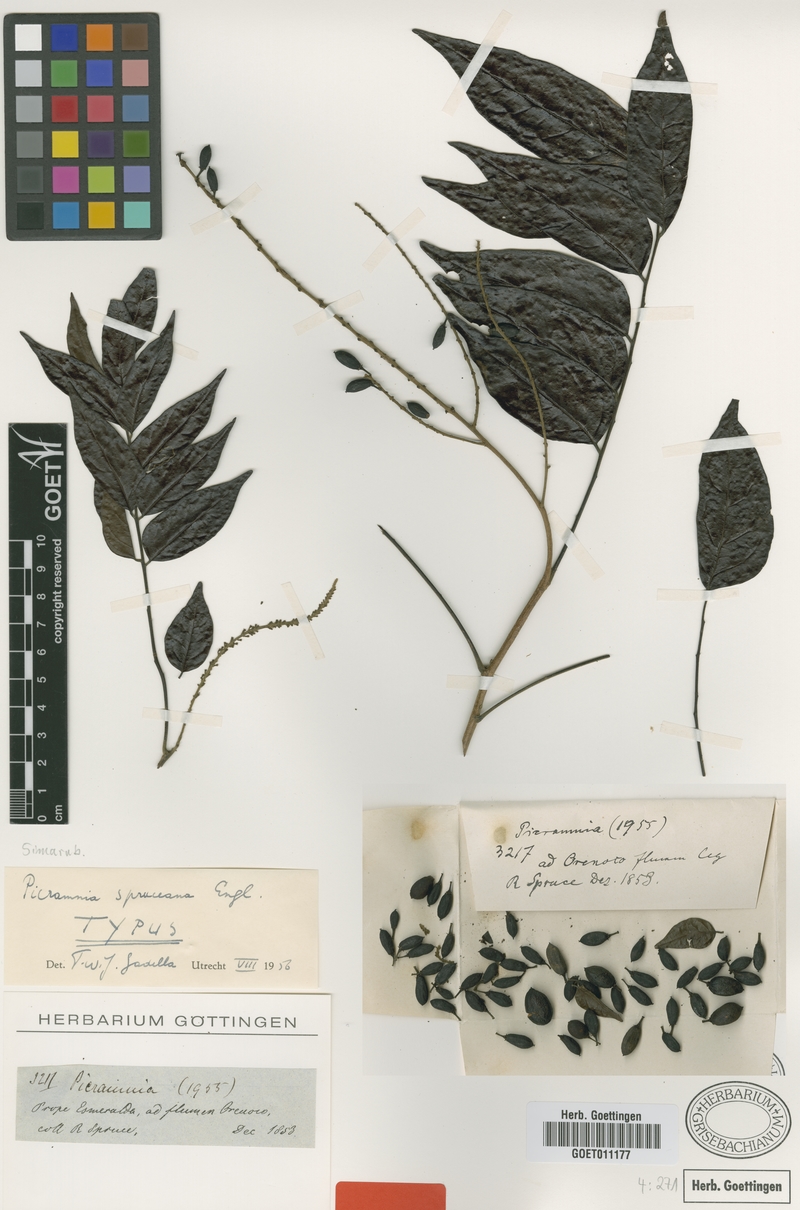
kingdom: Plantae
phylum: Tracheophyta
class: Magnoliopsida
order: Picramniales
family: Picramniaceae
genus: Picramnia
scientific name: Picramnia spruceana
